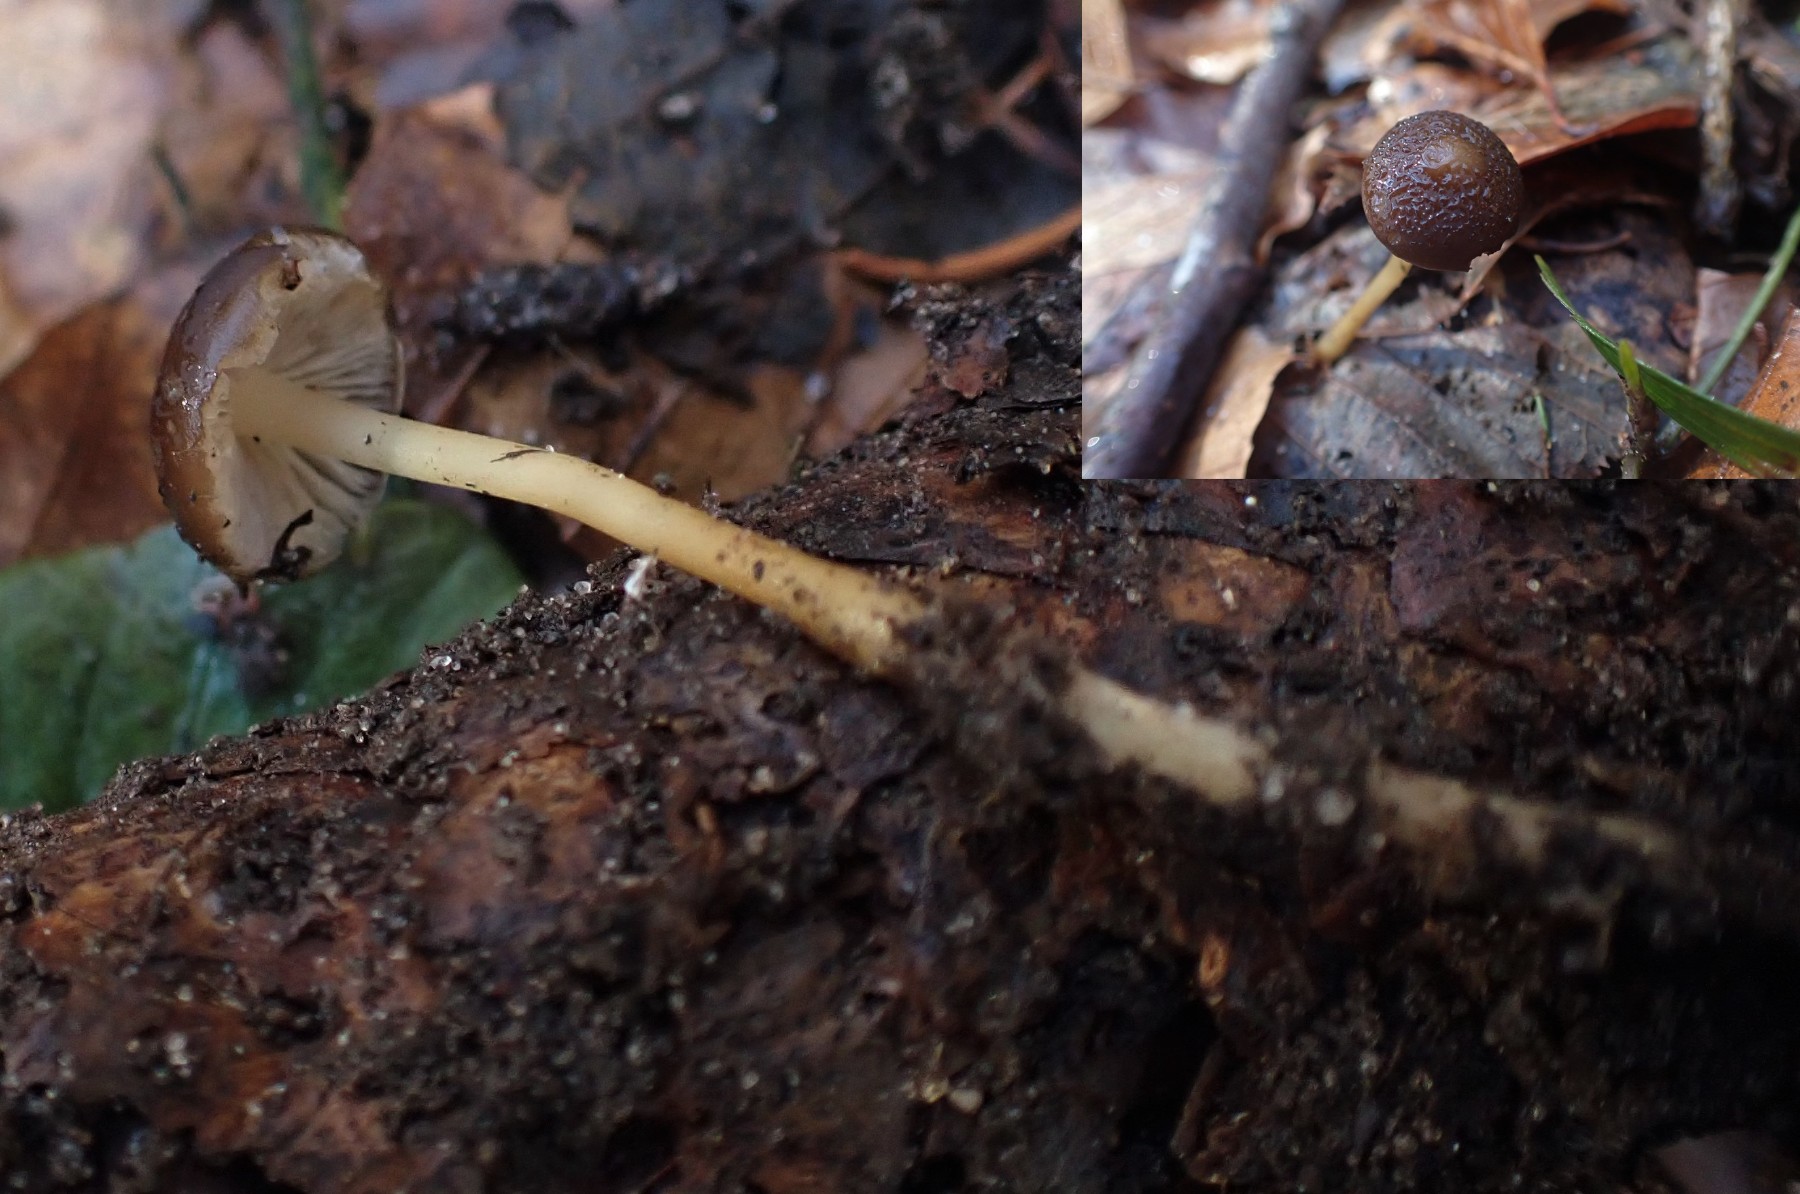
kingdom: Fungi
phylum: Basidiomycota
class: Agaricomycetes
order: Agaricales
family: Physalacriaceae
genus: Strobilurus
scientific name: Strobilurus esculentus
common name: gran-koglehat
